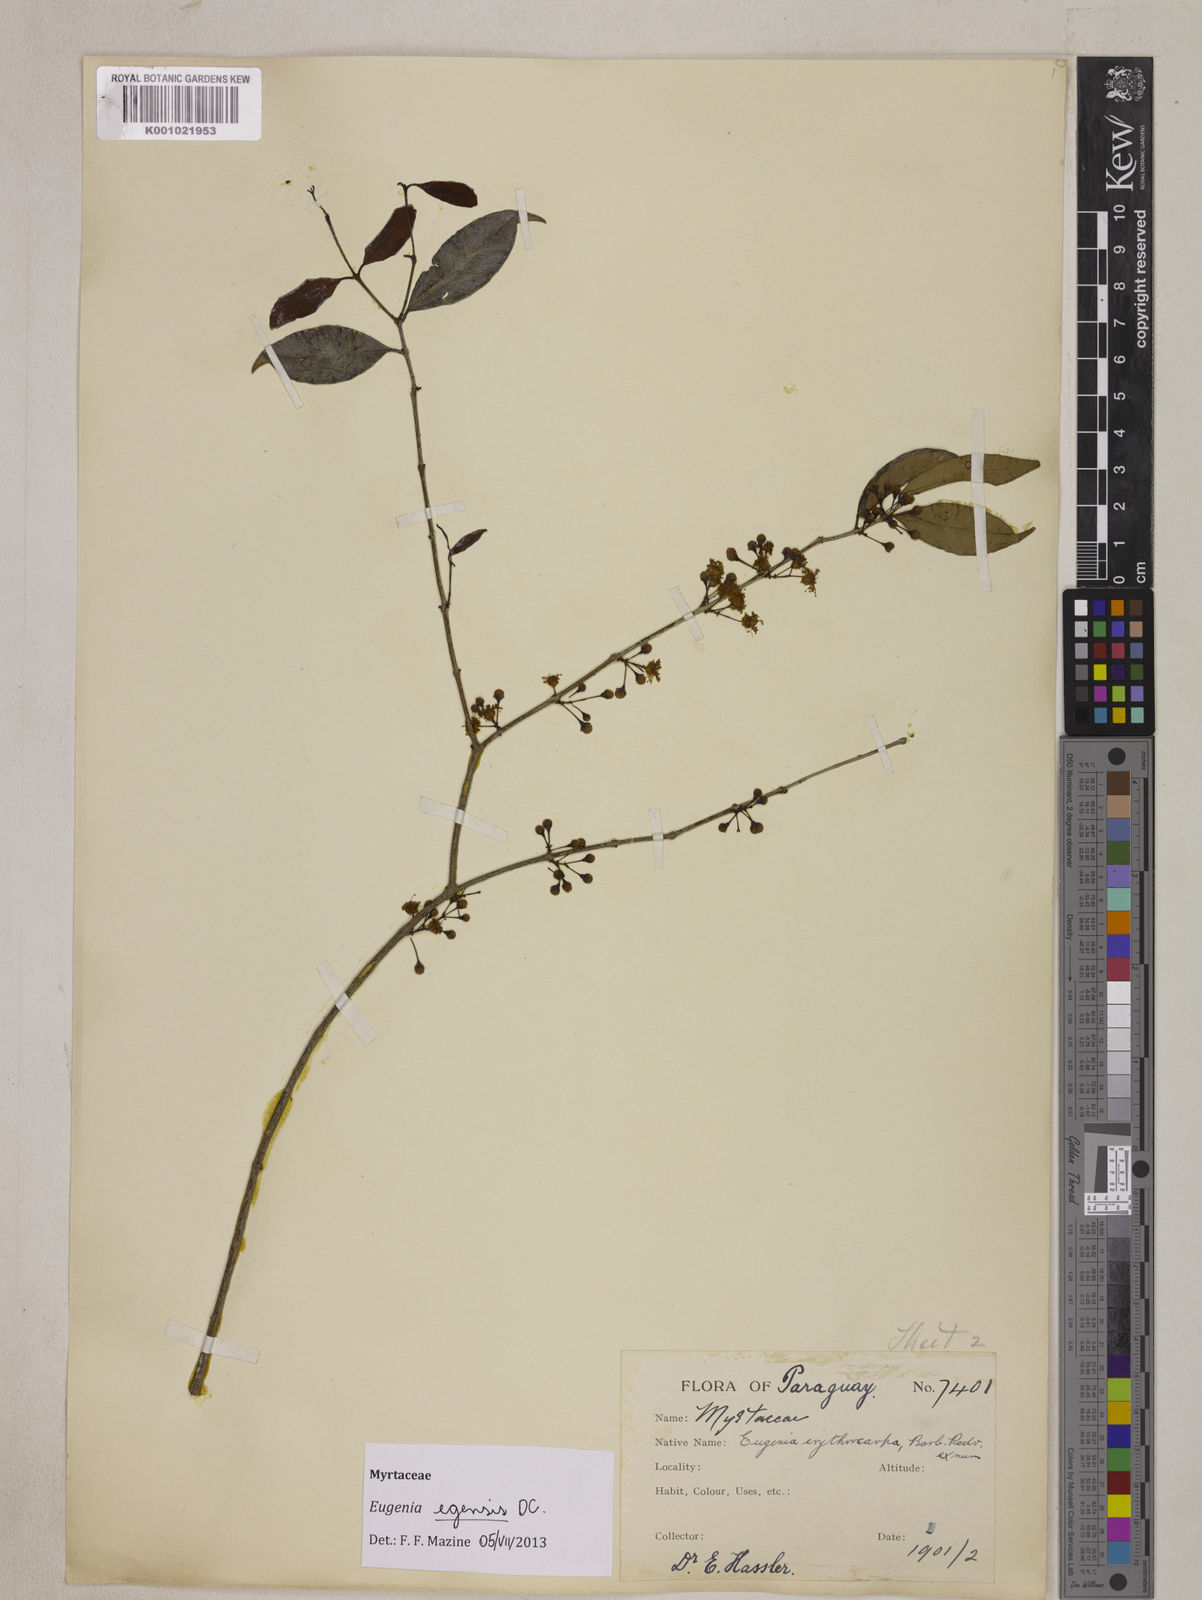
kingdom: Plantae
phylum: Tracheophyta
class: Magnoliopsida
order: Myrtales
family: Myrtaceae
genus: Eugenia
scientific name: Eugenia egensis
